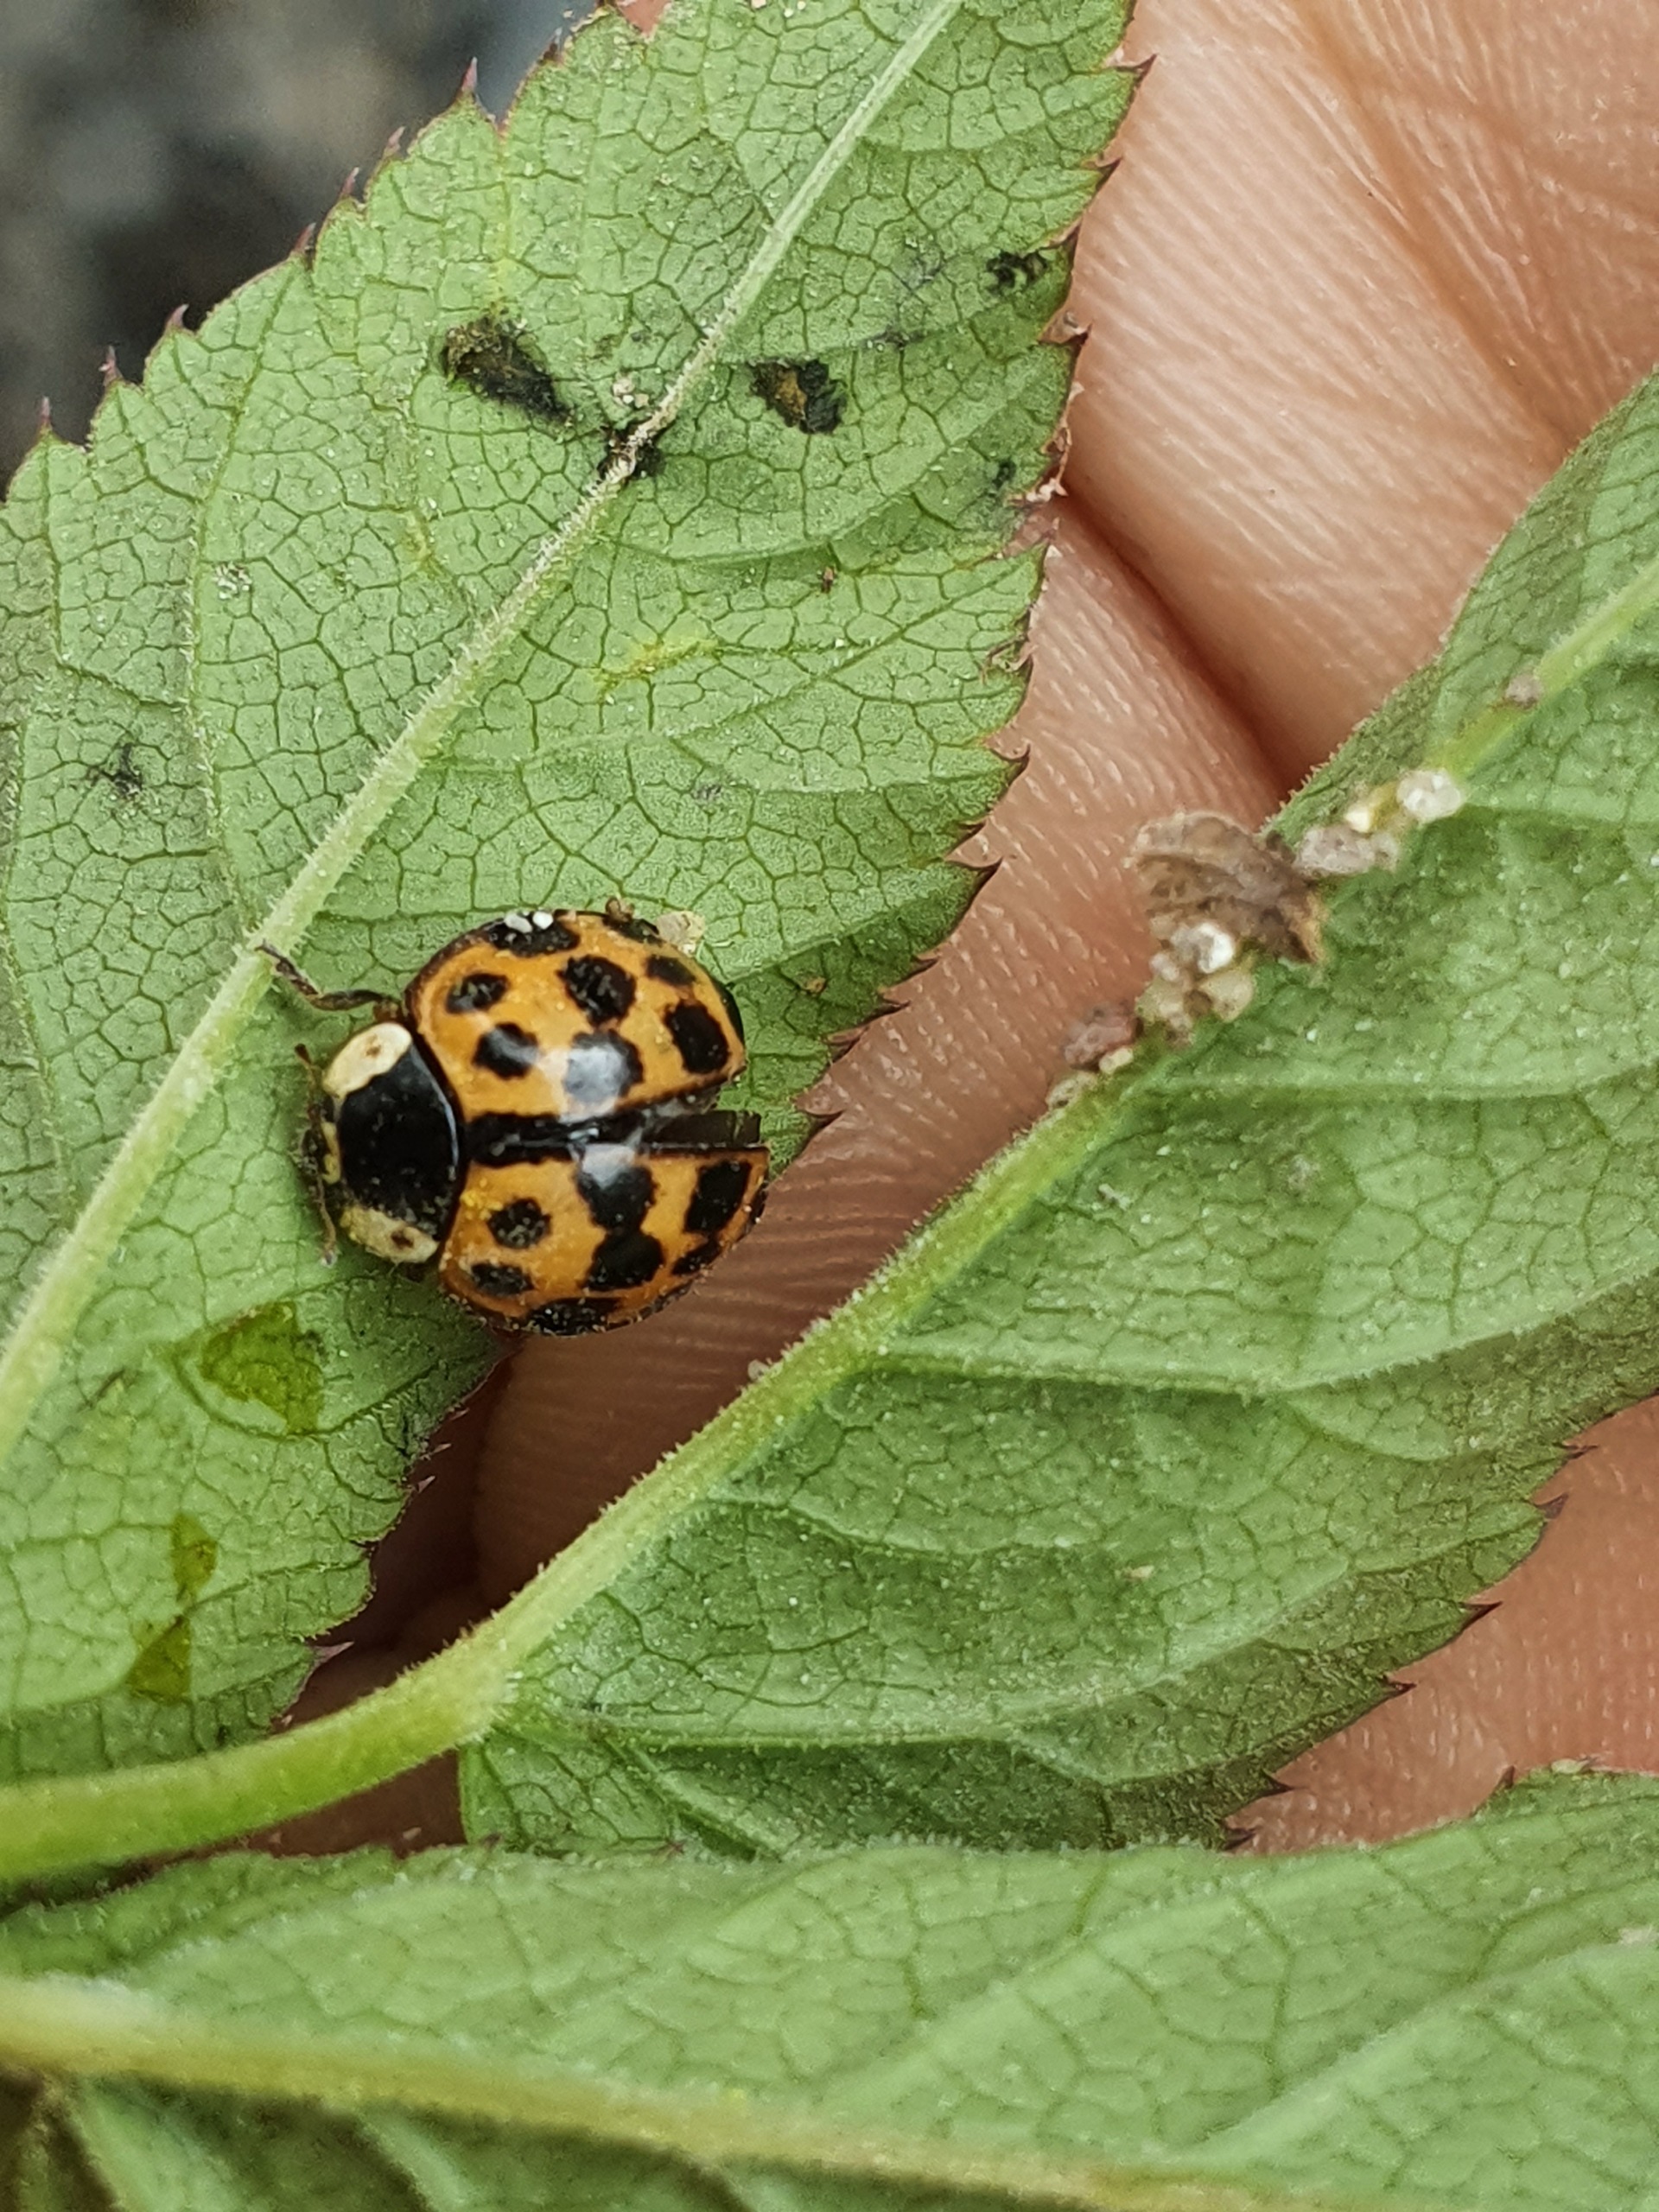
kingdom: Animalia
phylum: Arthropoda
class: Insecta
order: Coleoptera
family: Coccinellidae
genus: Harmonia
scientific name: Harmonia axyridis
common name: Harlekinmariehøne
